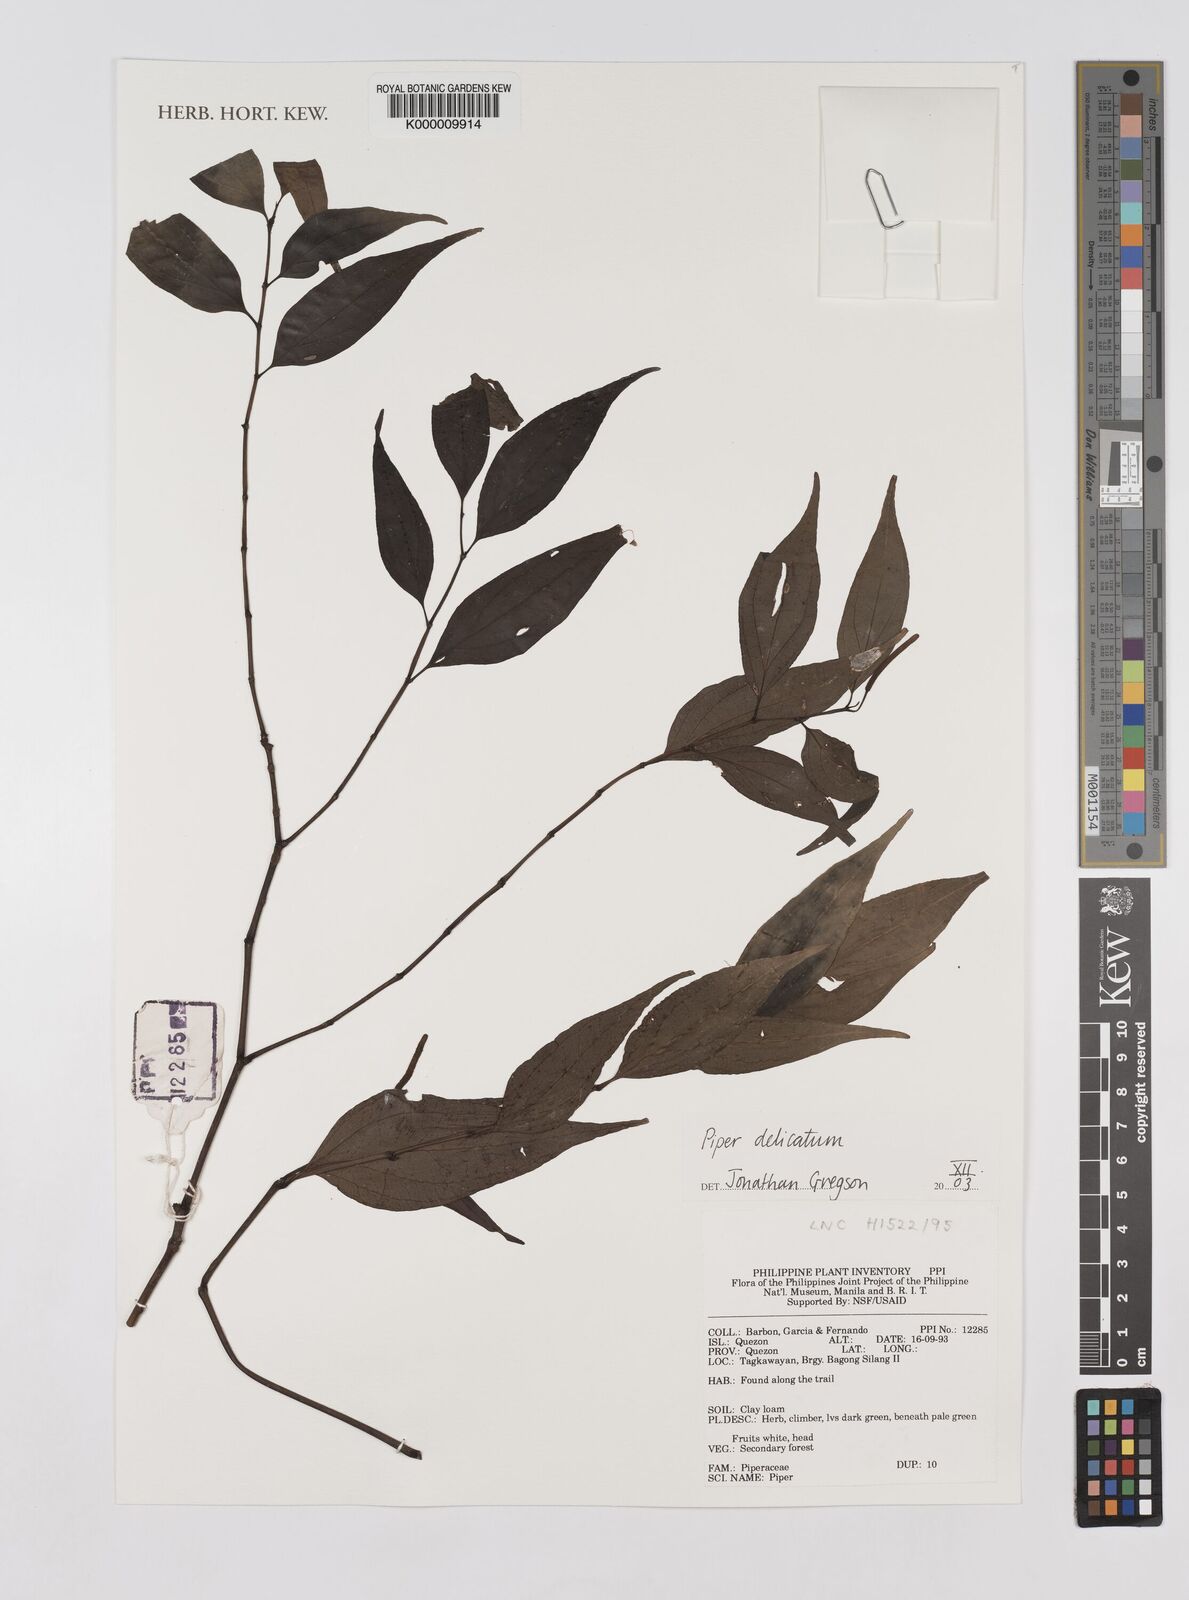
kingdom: Plantae
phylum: Tracheophyta
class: Magnoliopsida
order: Piperales
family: Piperaceae
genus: Piper
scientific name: Piper delicatum
